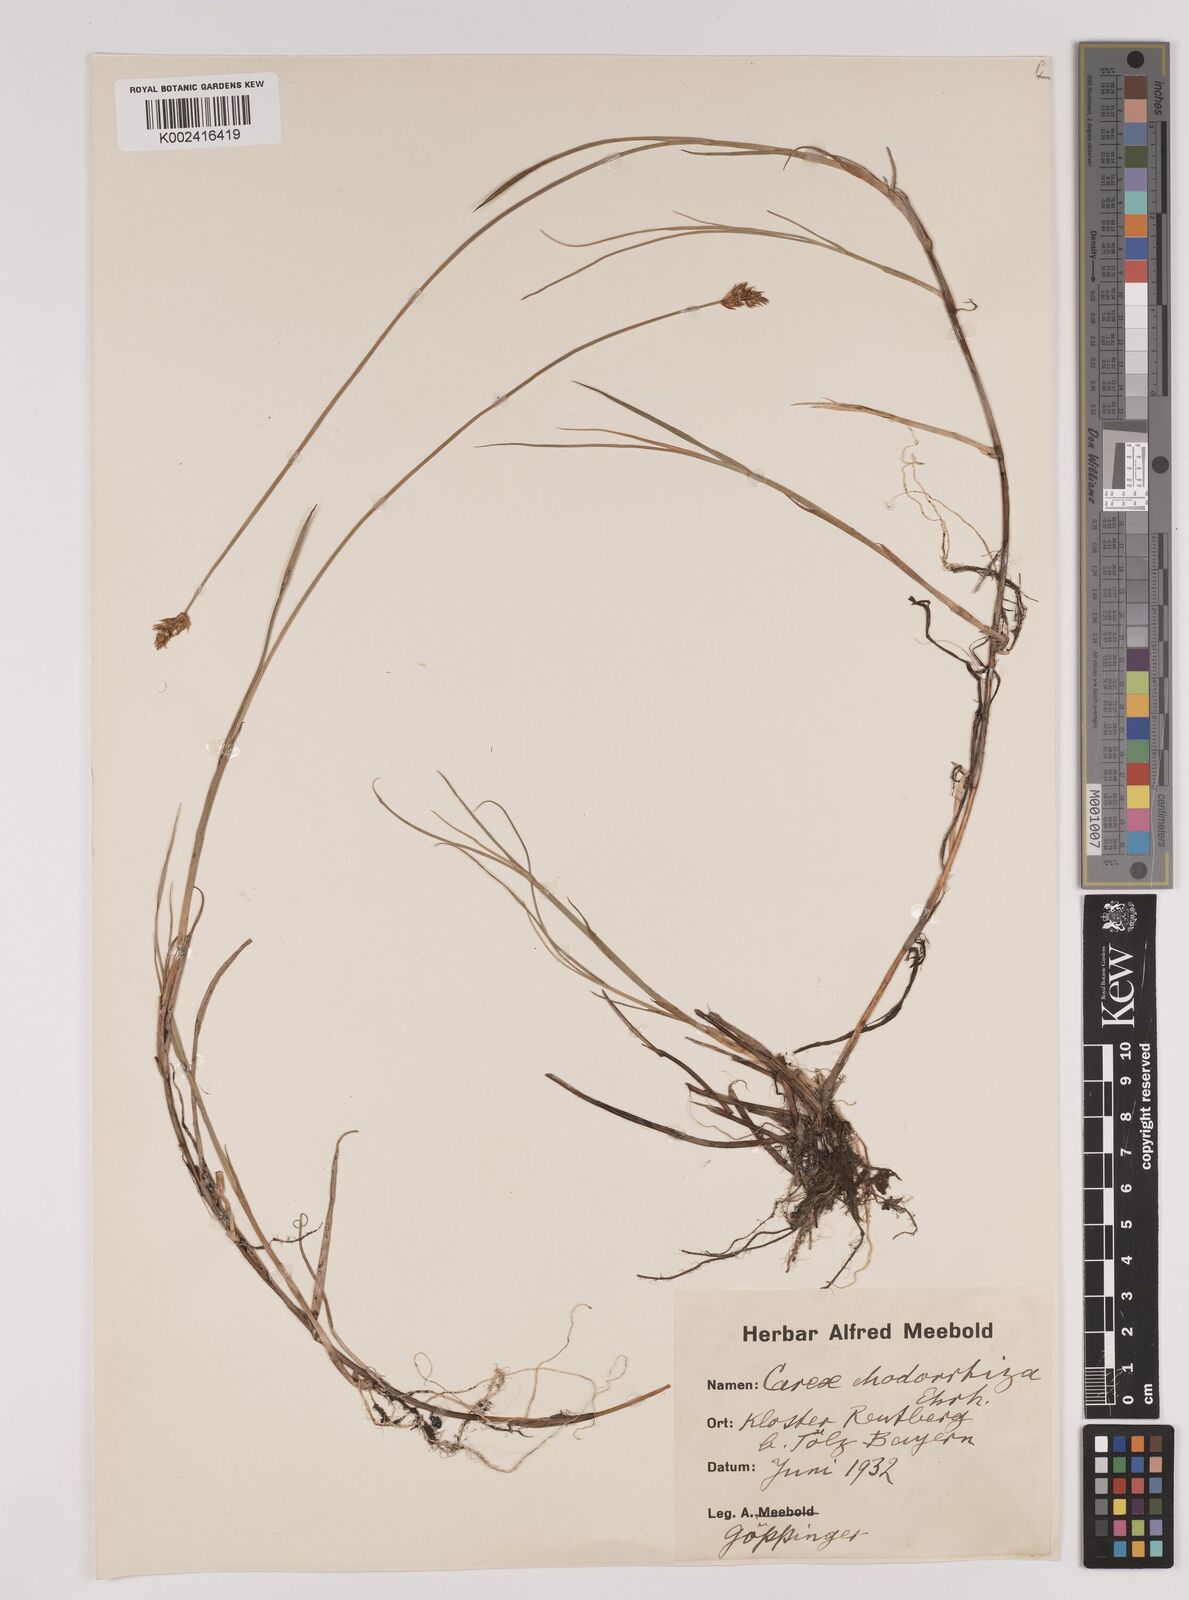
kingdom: Plantae
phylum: Tracheophyta
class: Liliopsida
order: Poales
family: Cyperaceae
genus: Carex
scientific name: Carex chordorrhiza
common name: String sedge
